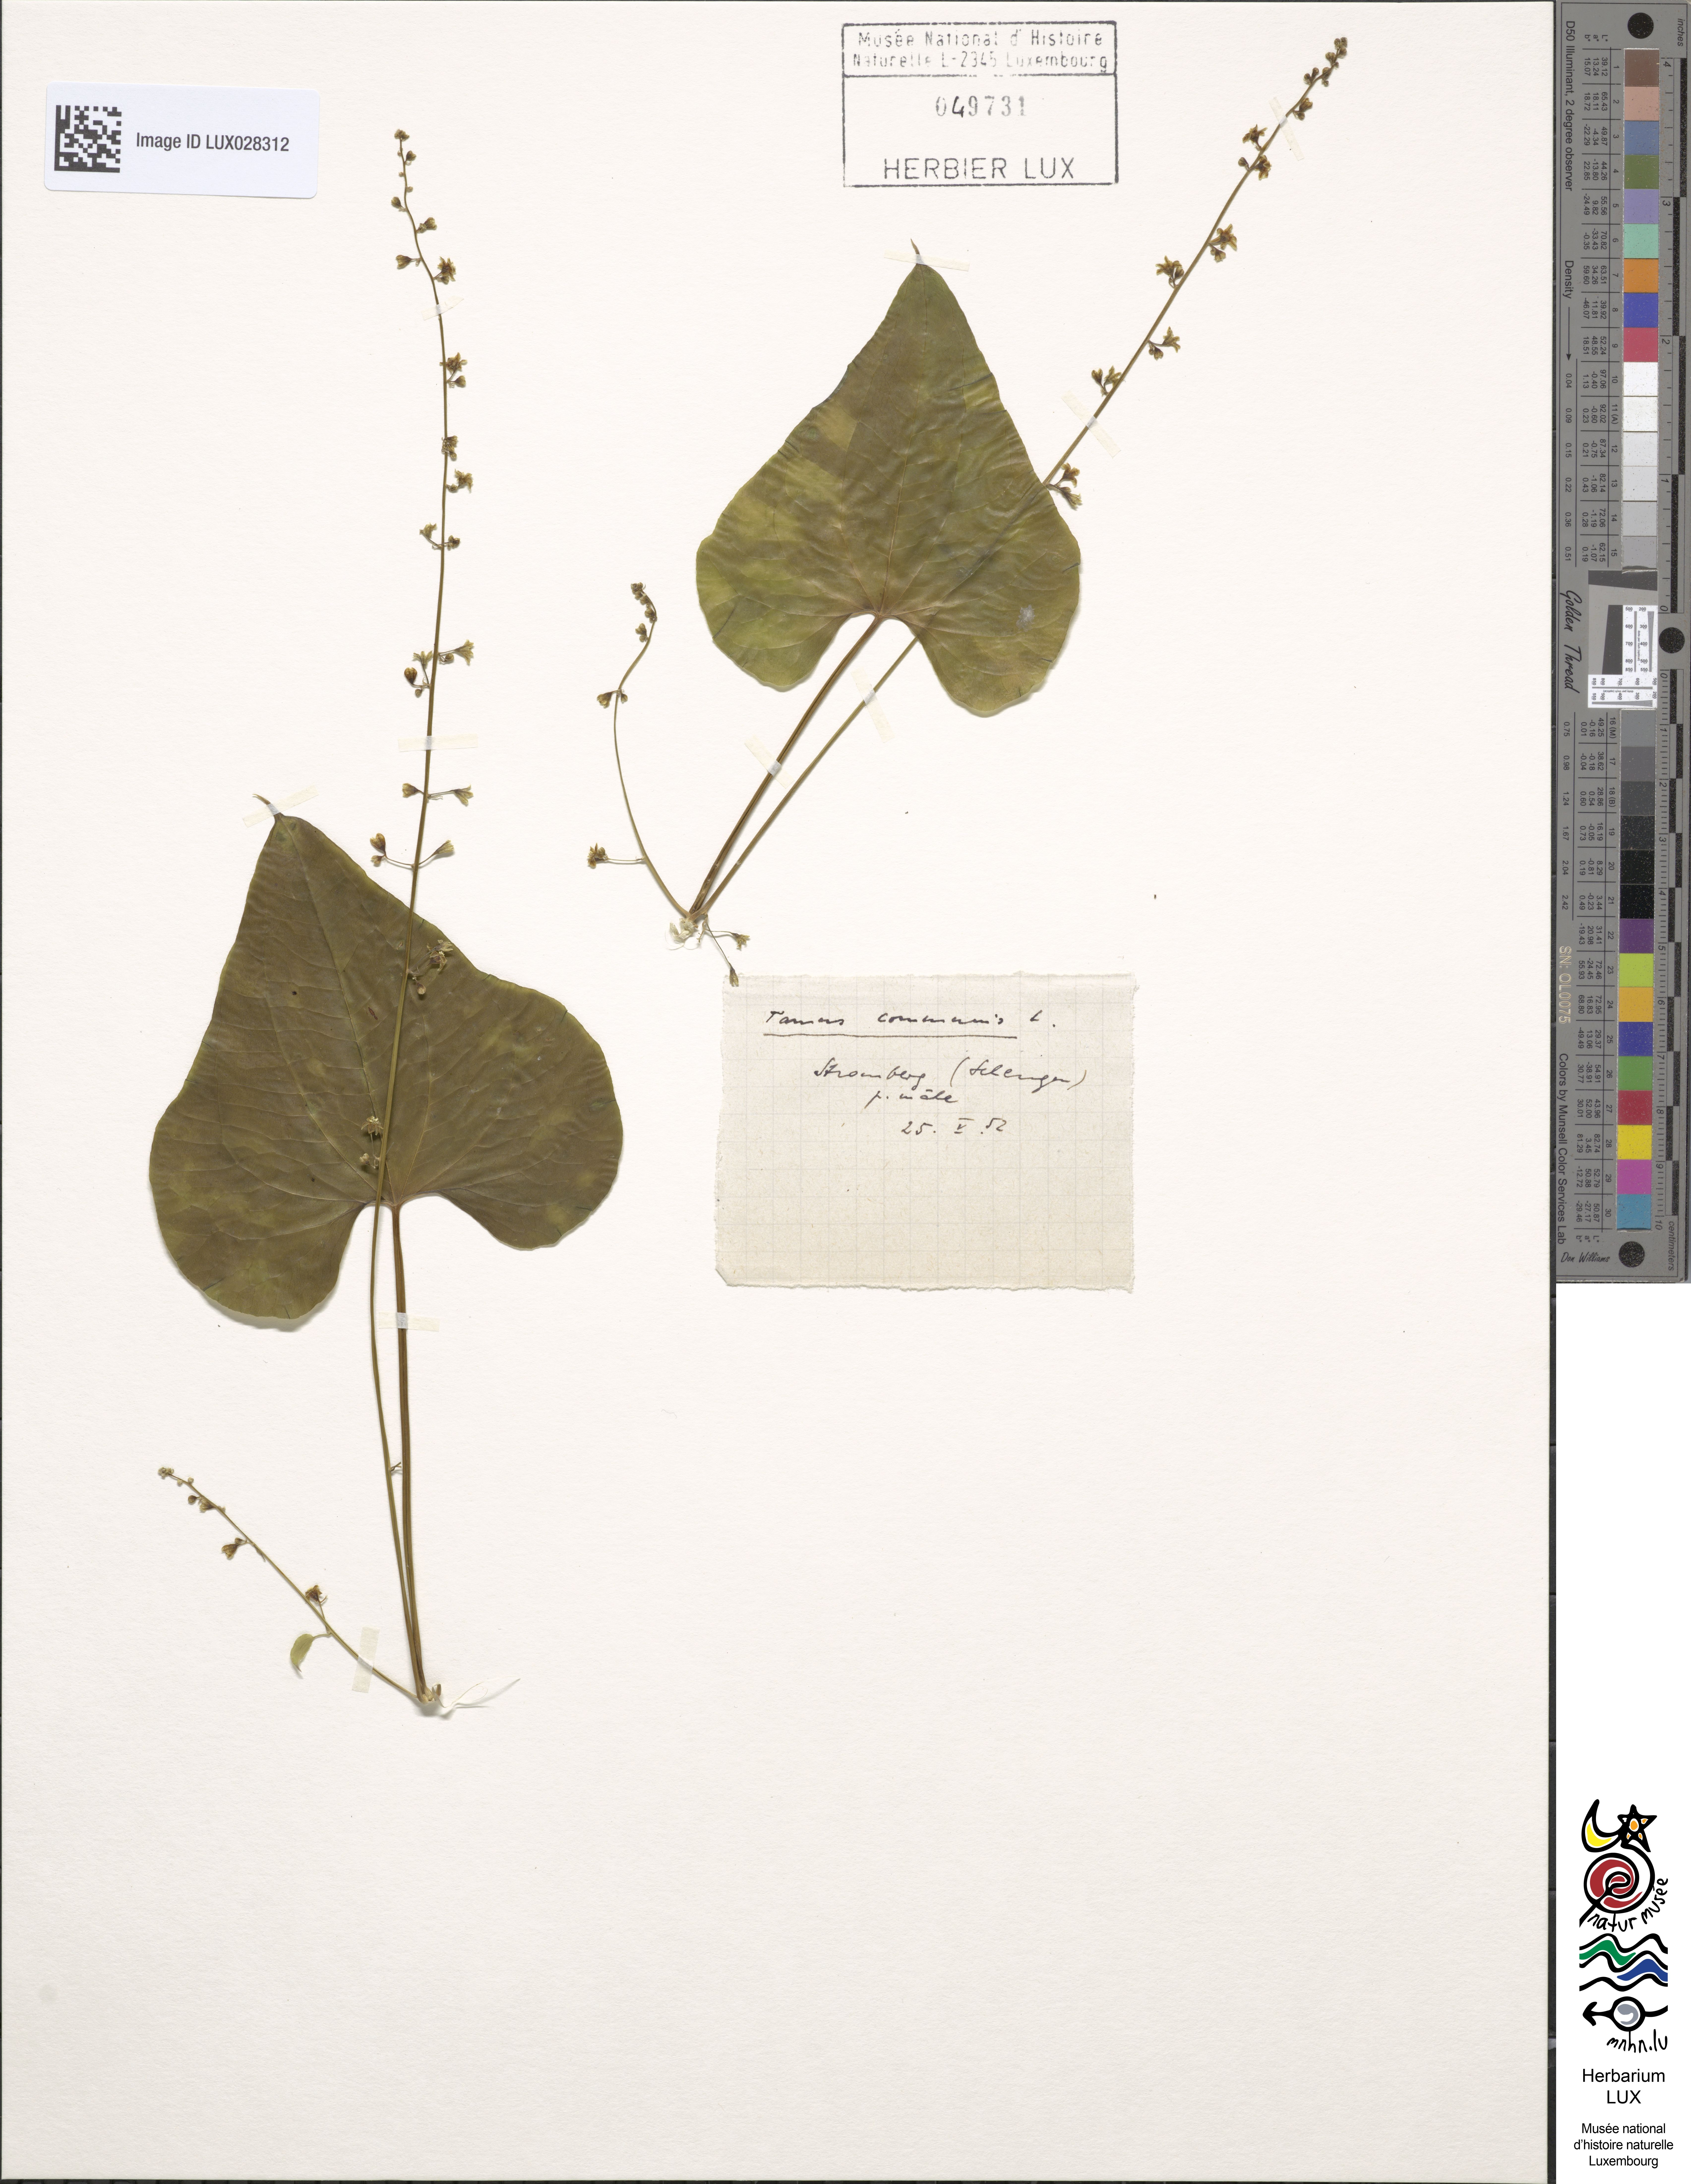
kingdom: Plantae
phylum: Tracheophyta
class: Liliopsida
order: Dioscoreales
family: Dioscoreaceae
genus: Dioscorea
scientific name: Dioscorea communis
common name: Black-bindweed
